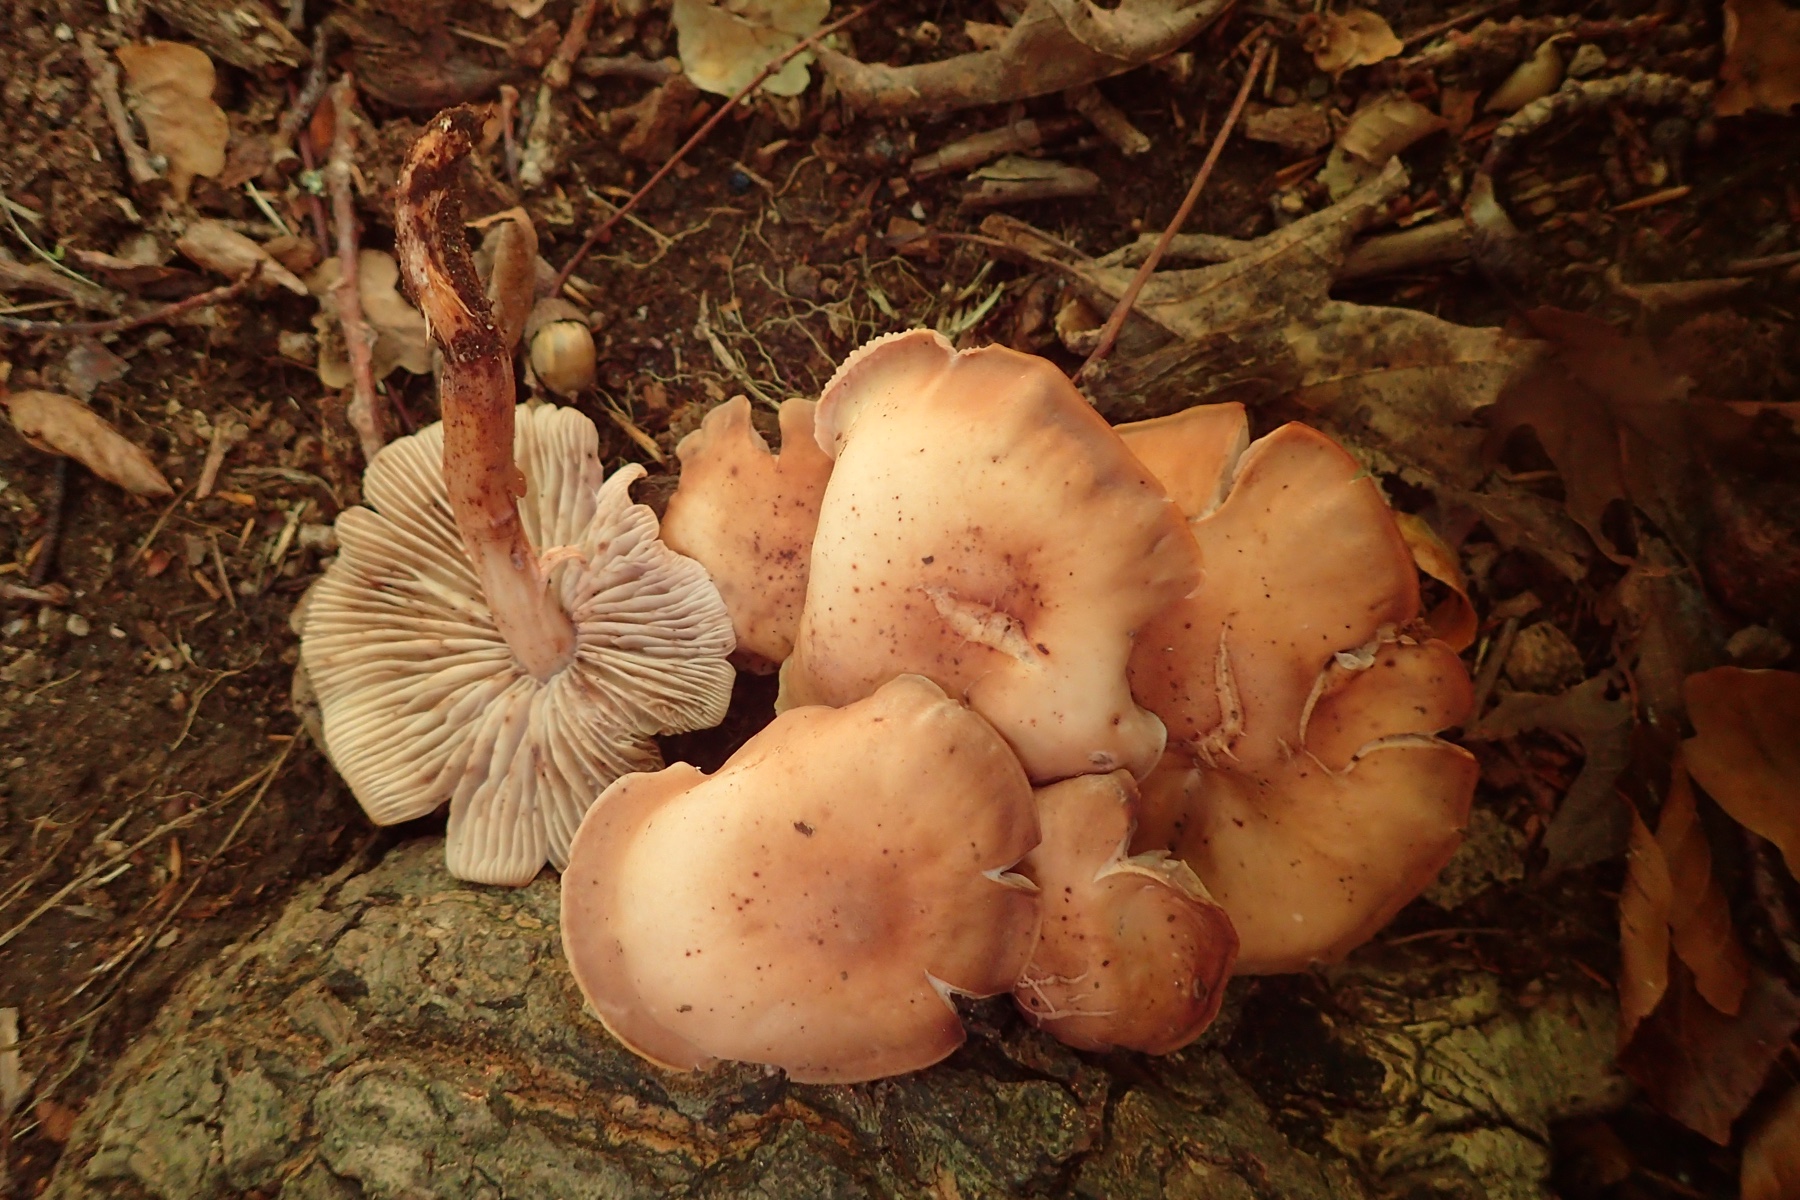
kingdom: Fungi
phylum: Basidiomycota
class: Agaricomycetes
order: Agaricales
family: Omphalotaceae
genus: Gymnopus
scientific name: Gymnopus fusipes
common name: tenstokket fladhat
